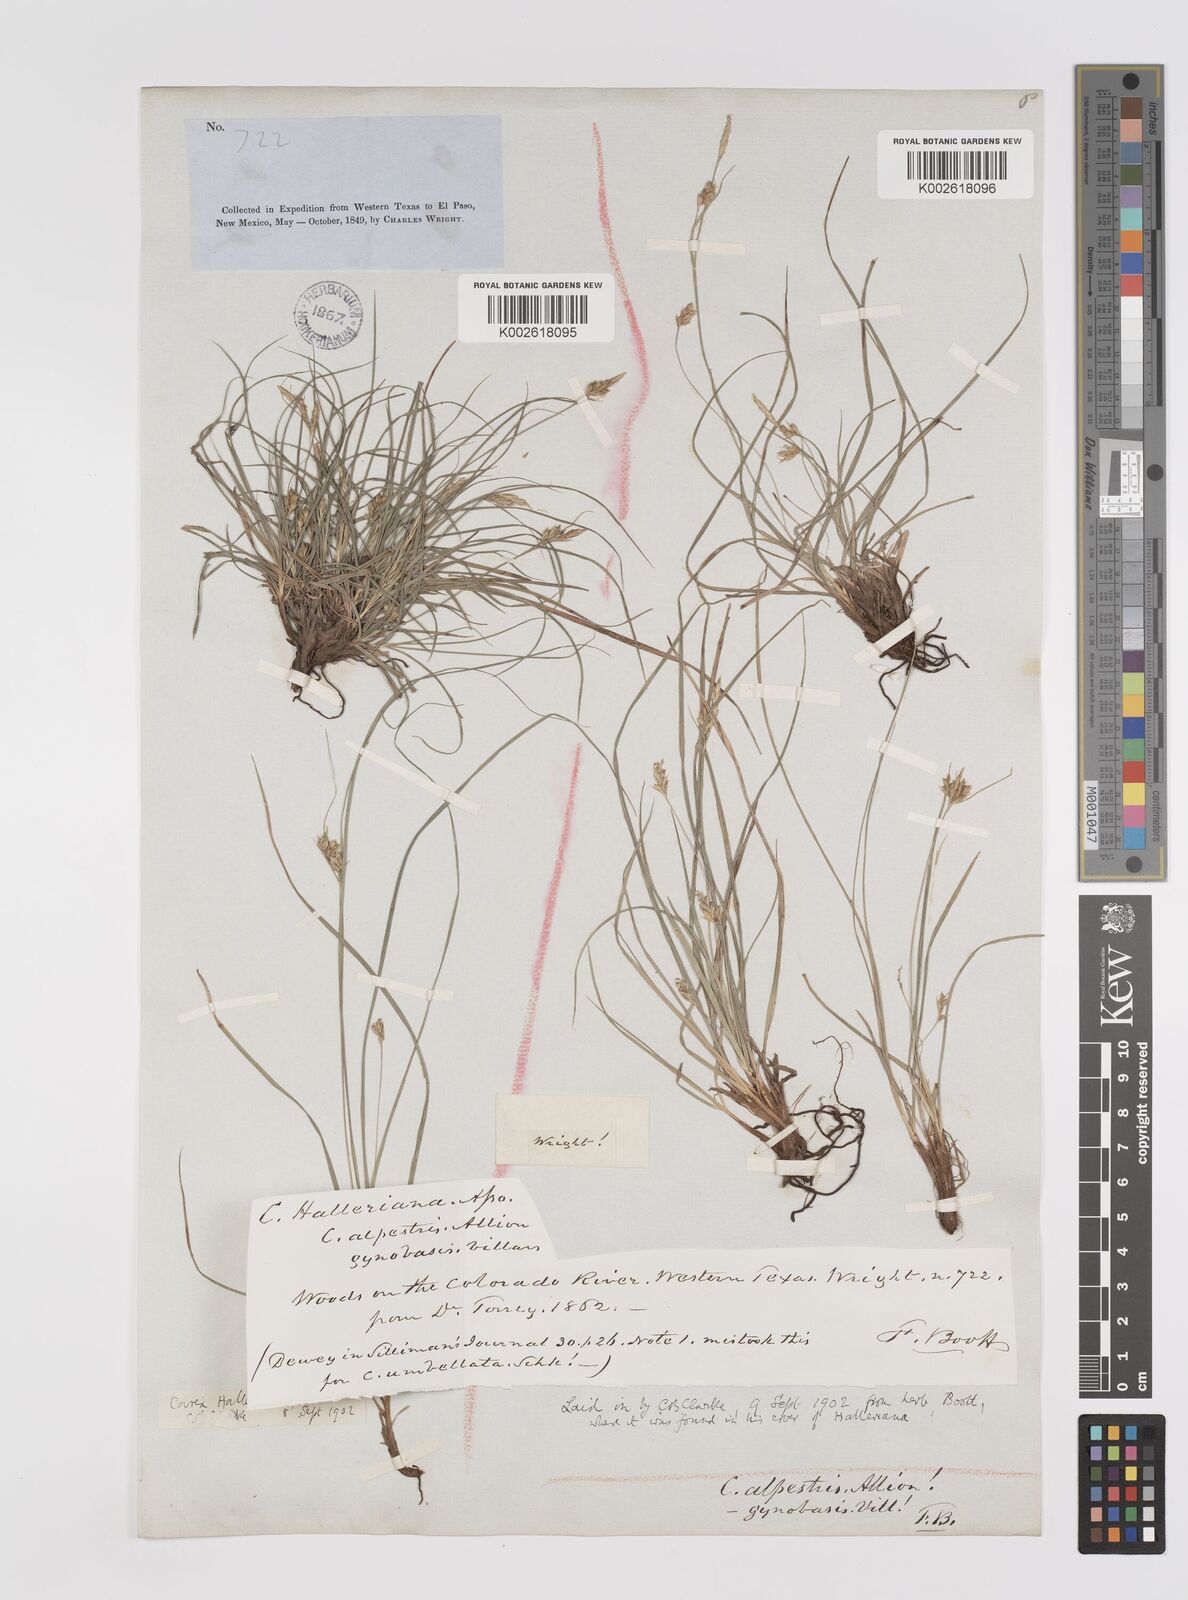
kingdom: Plantae
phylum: Tracheophyta
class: Liliopsida
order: Poales
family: Cyperaceae
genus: Carex
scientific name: Carex planostachys
